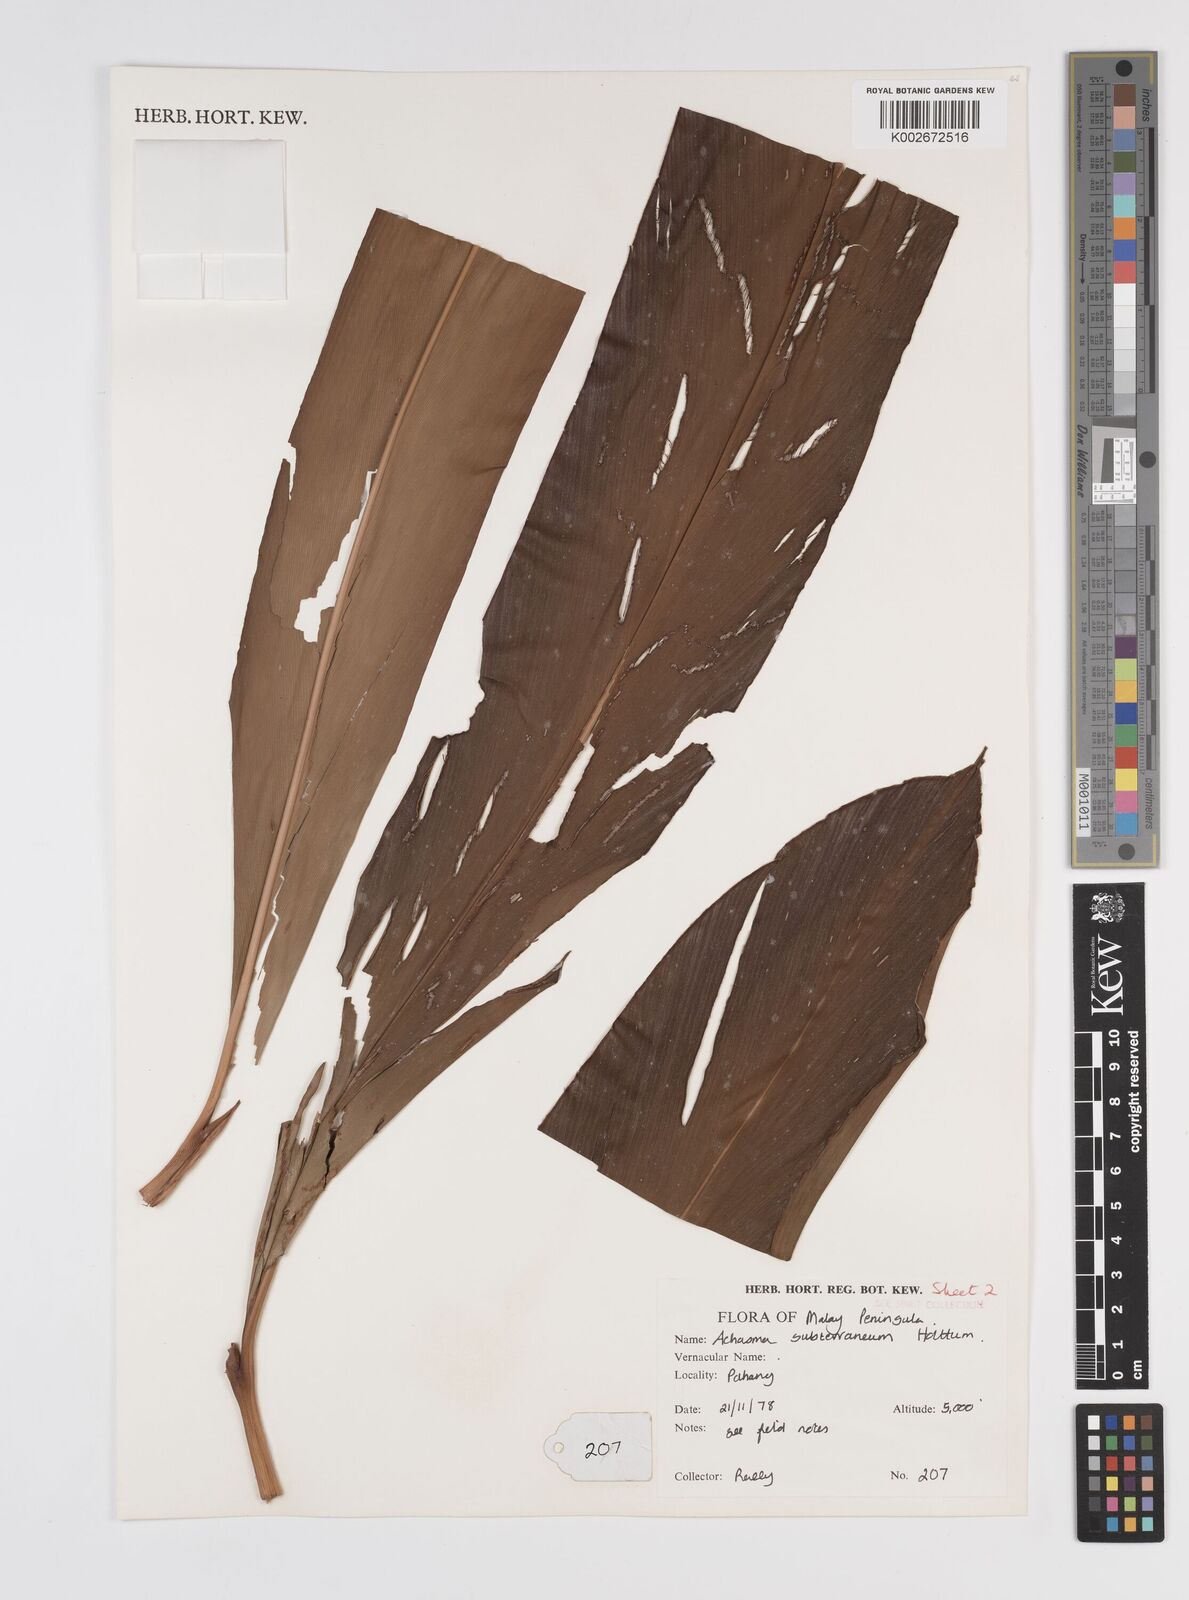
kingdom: Plantae
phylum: Tracheophyta
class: Liliopsida
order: Zingiberales
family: Zingiberaceae
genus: Etlingera
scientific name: Etlingera subterranea
